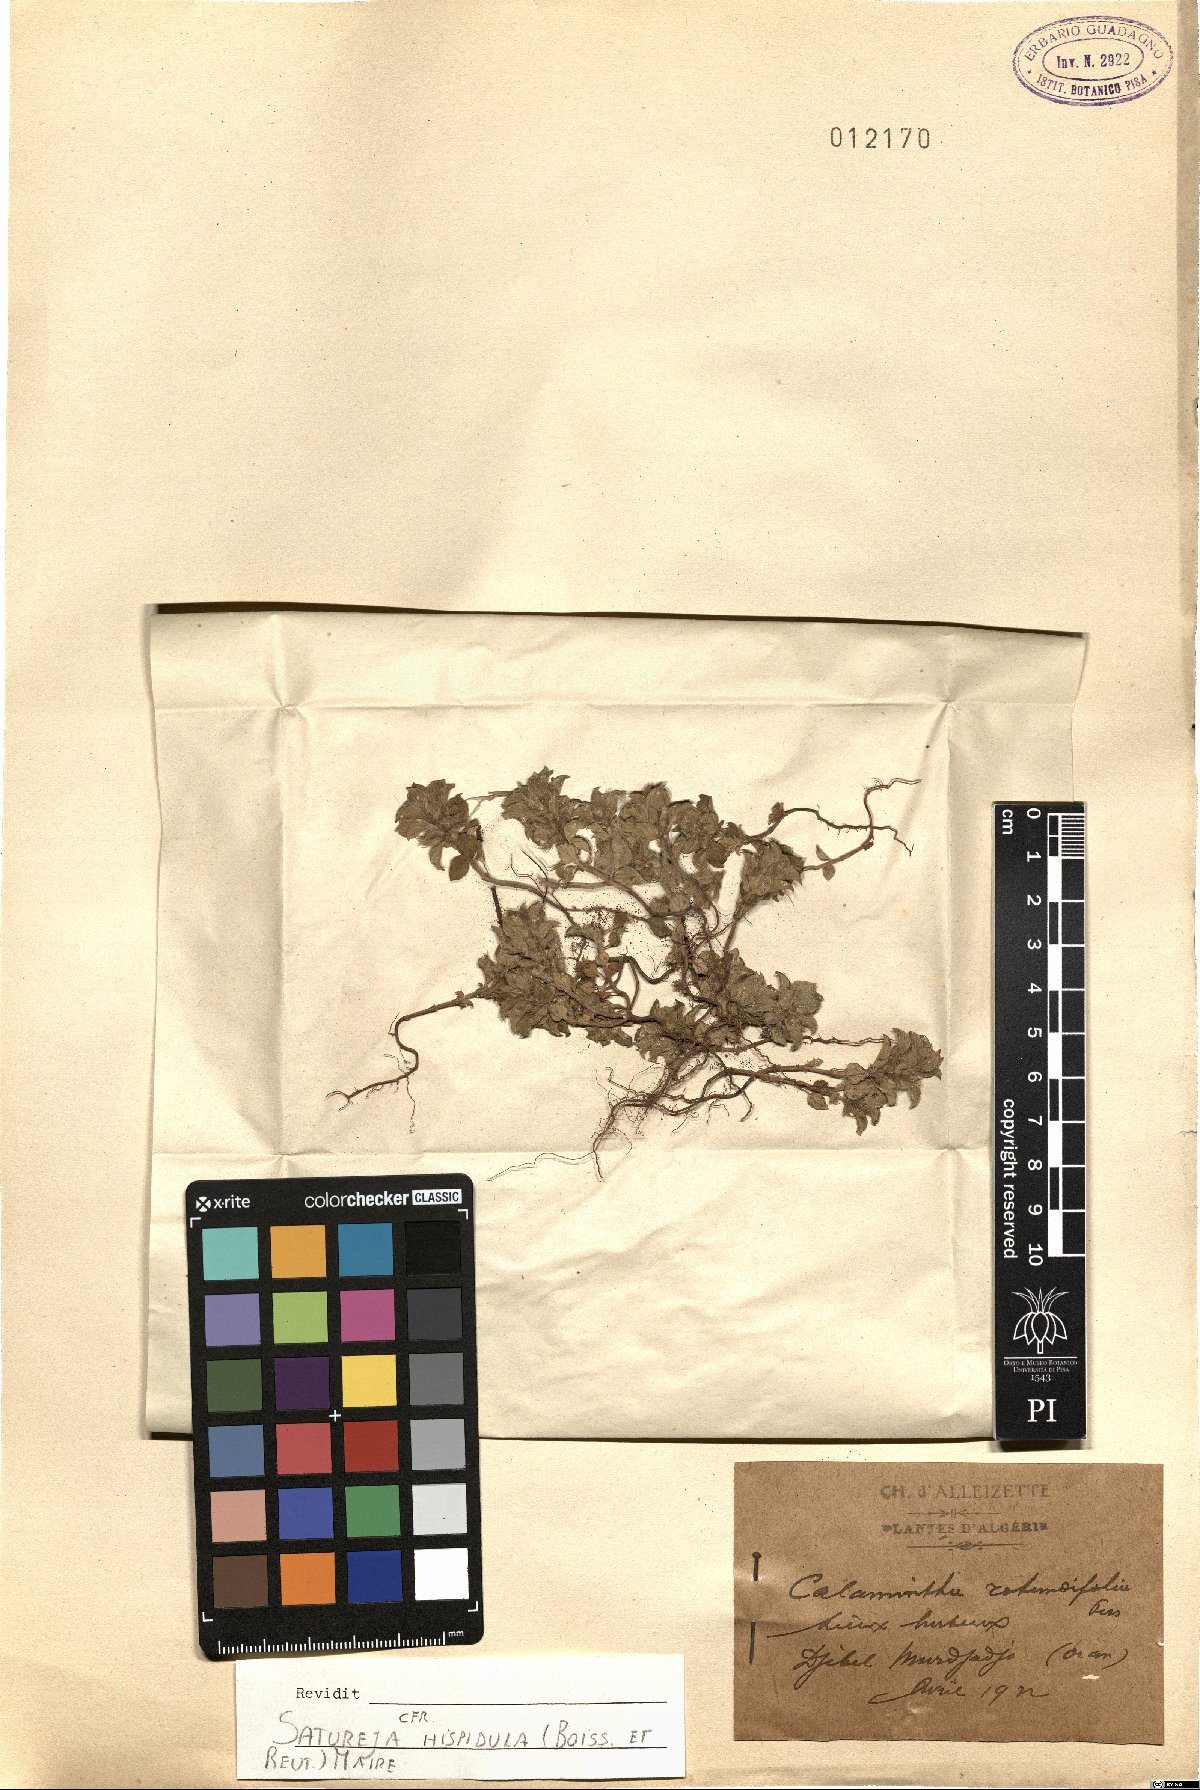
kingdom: Plantae
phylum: Tracheophyta
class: Magnoliopsida
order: Lamiales
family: Lamiaceae
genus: Clinopodium
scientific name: Clinopodium hispidulum
